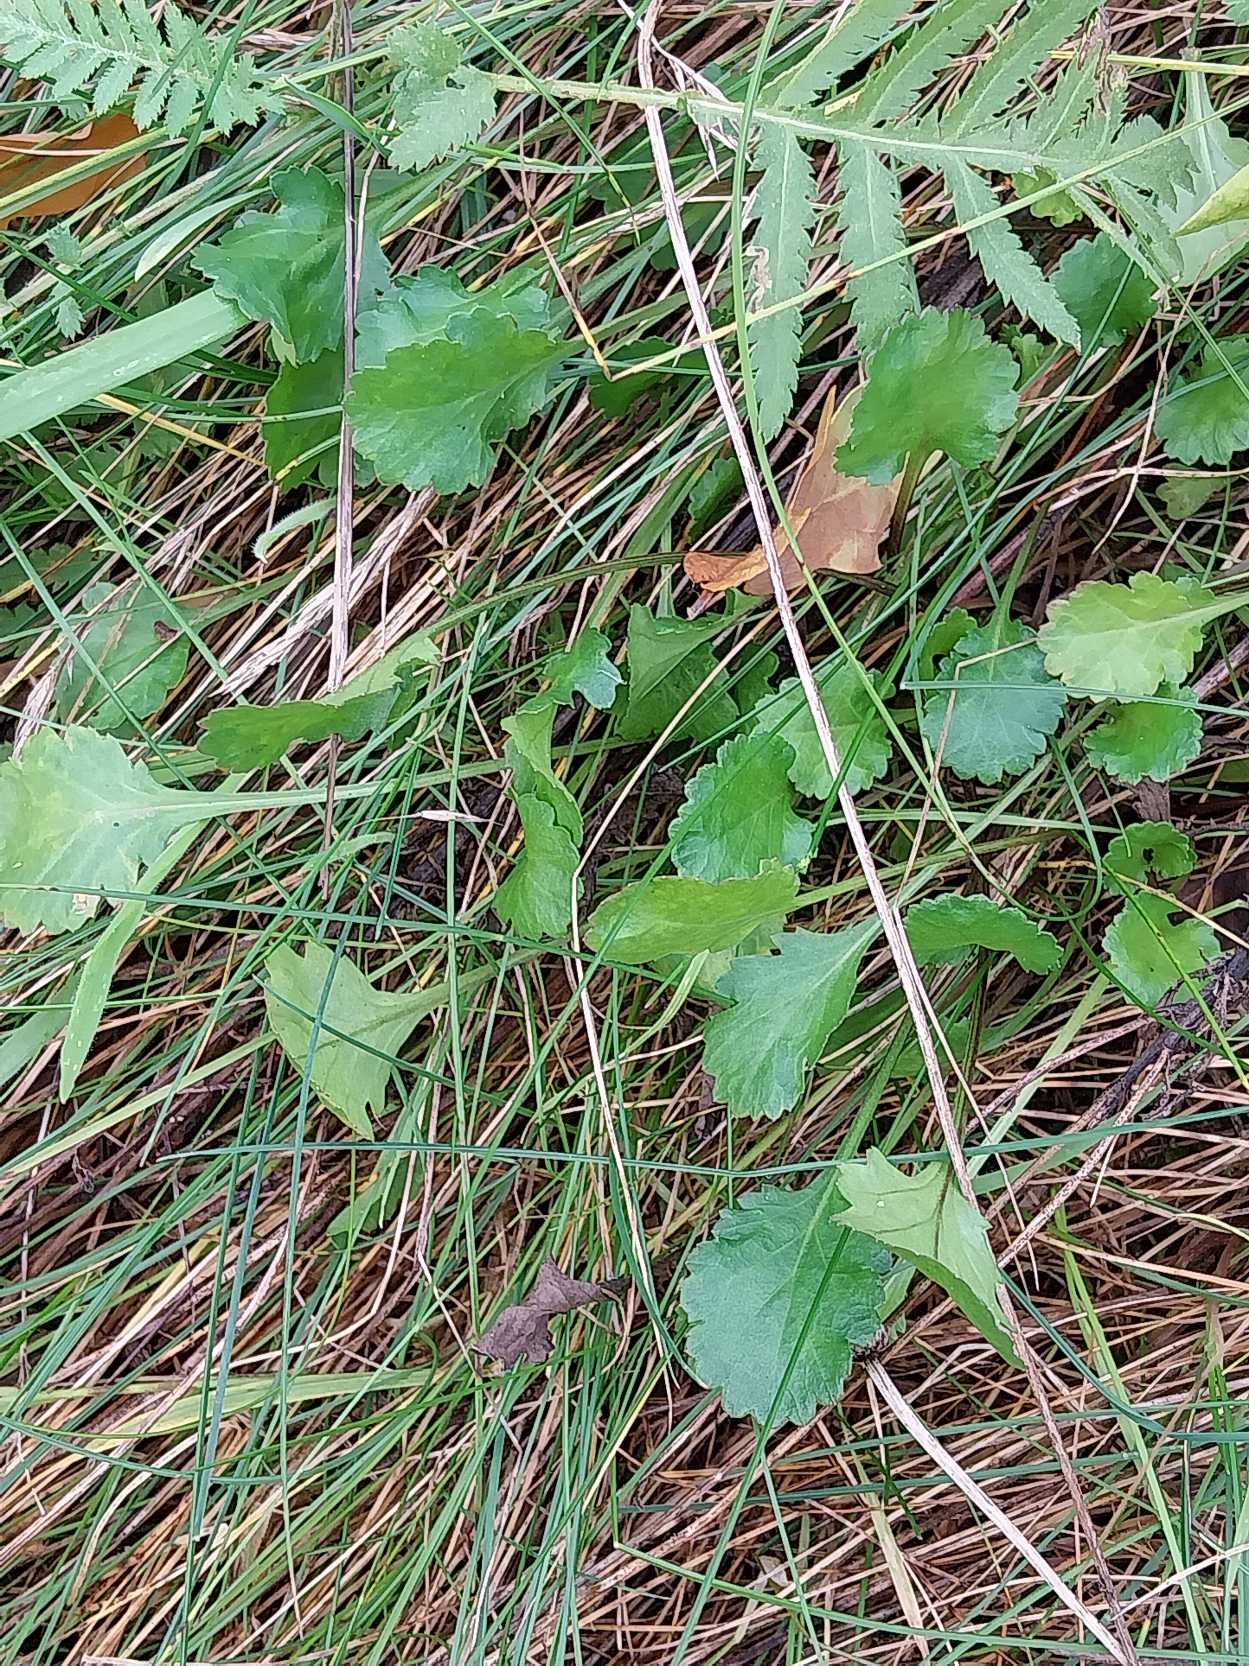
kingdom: Plantae
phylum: Tracheophyta
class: Magnoliopsida
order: Asterales
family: Asteraceae
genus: Leucanthemum
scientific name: Leucanthemum vulgare
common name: Hvid okseøje
